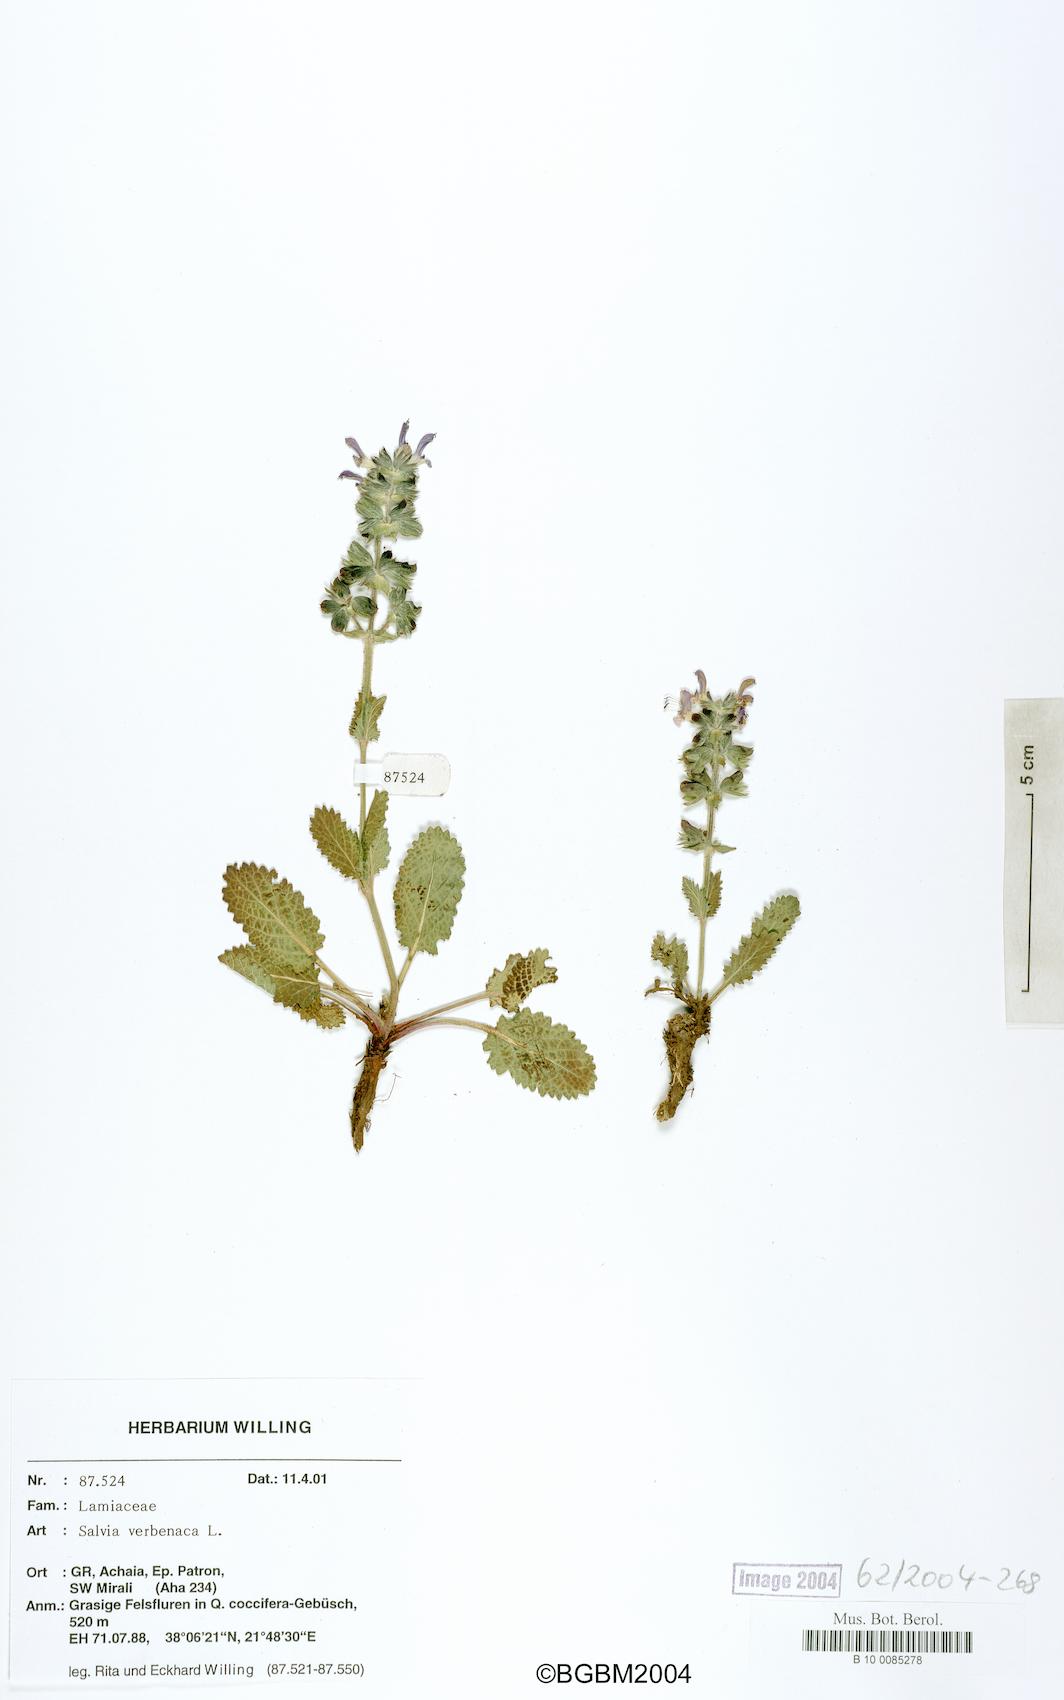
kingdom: Plantae
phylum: Tracheophyta
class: Magnoliopsida
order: Lamiales
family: Lamiaceae
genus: Salvia
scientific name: Salvia verbenaca
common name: Wild clary
